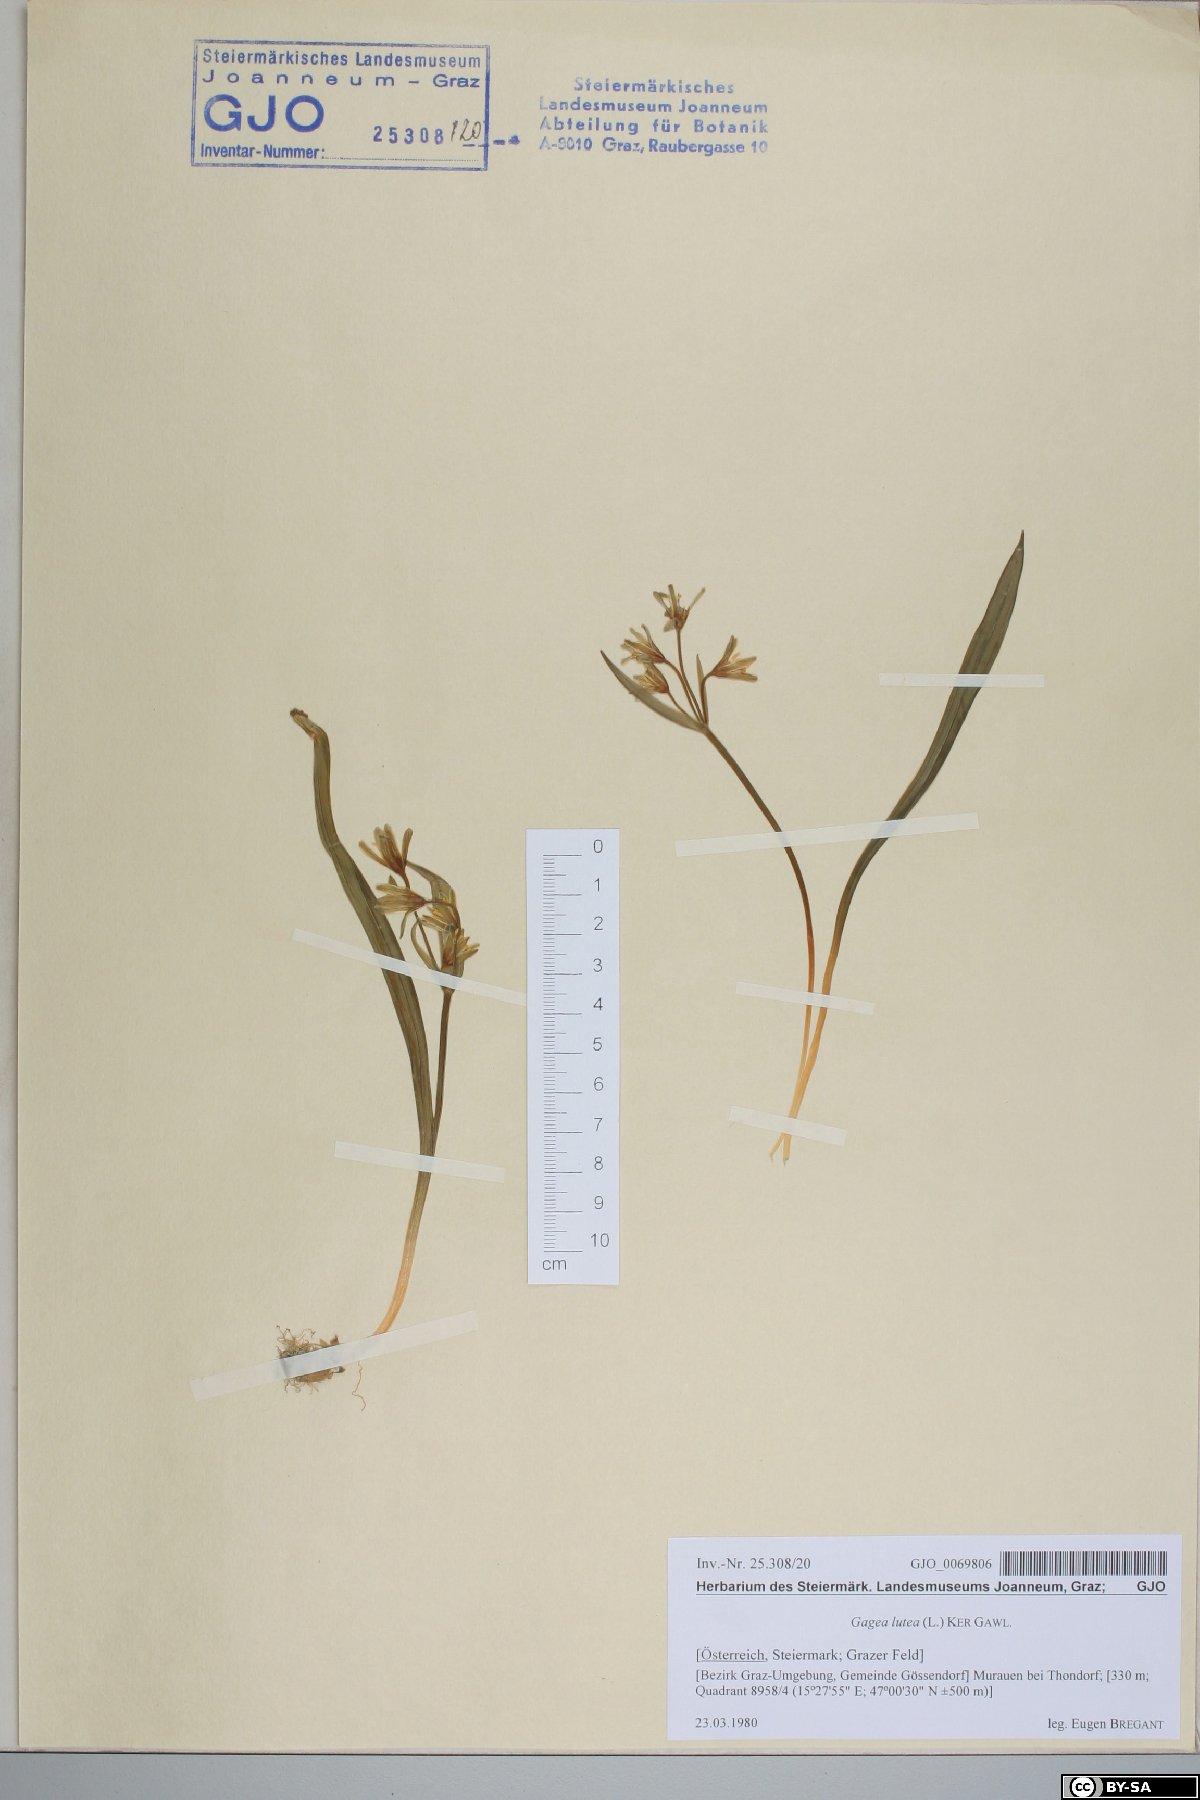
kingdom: Plantae
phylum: Tracheophyta
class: Liliopsida
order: Liliales
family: Liliaceae
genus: Gagea
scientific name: Gagea lutea
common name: Yellow star-of-bethlehem
